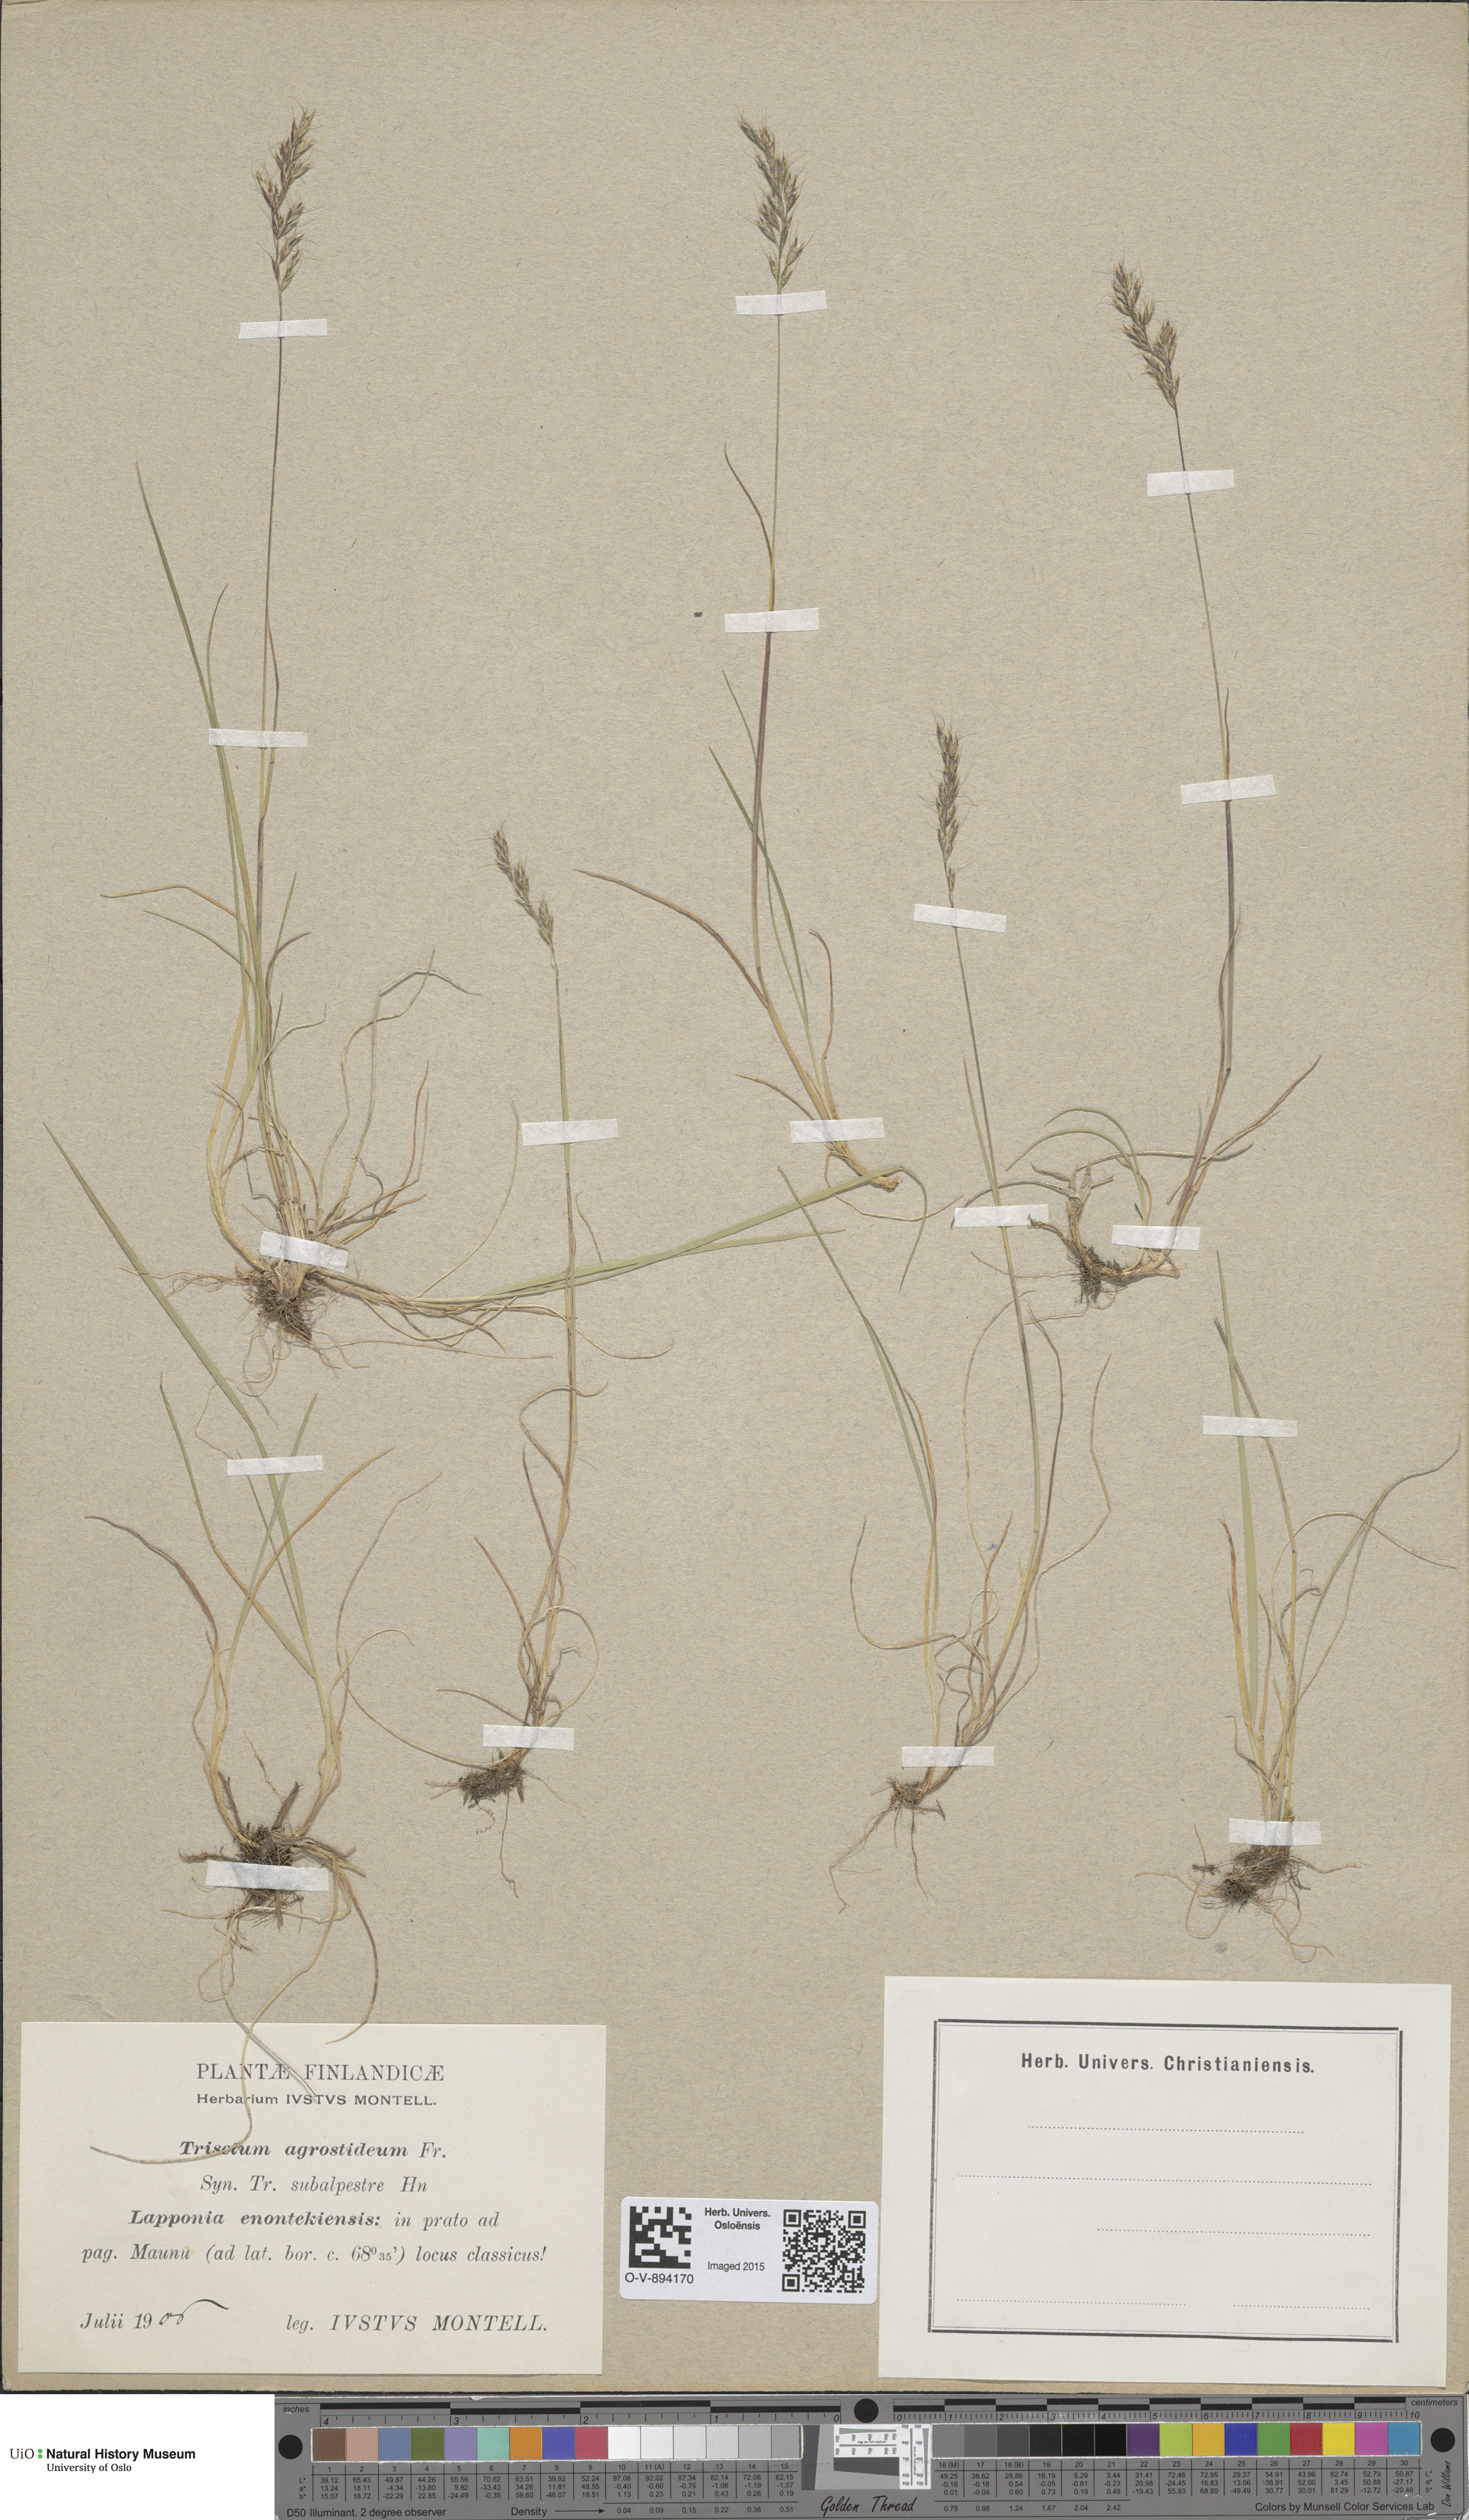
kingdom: Plantae
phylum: Tracheophyta
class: Liliopsida
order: Poales
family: Poaceae
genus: Koeleria
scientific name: Koeleria subalpestris
